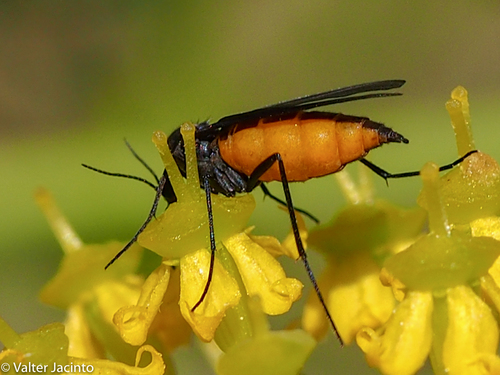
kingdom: Animalia
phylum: Arthropoda
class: Insecta
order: Diptera
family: Sciaridae
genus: Sciara
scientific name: Sciara hemerobioides
